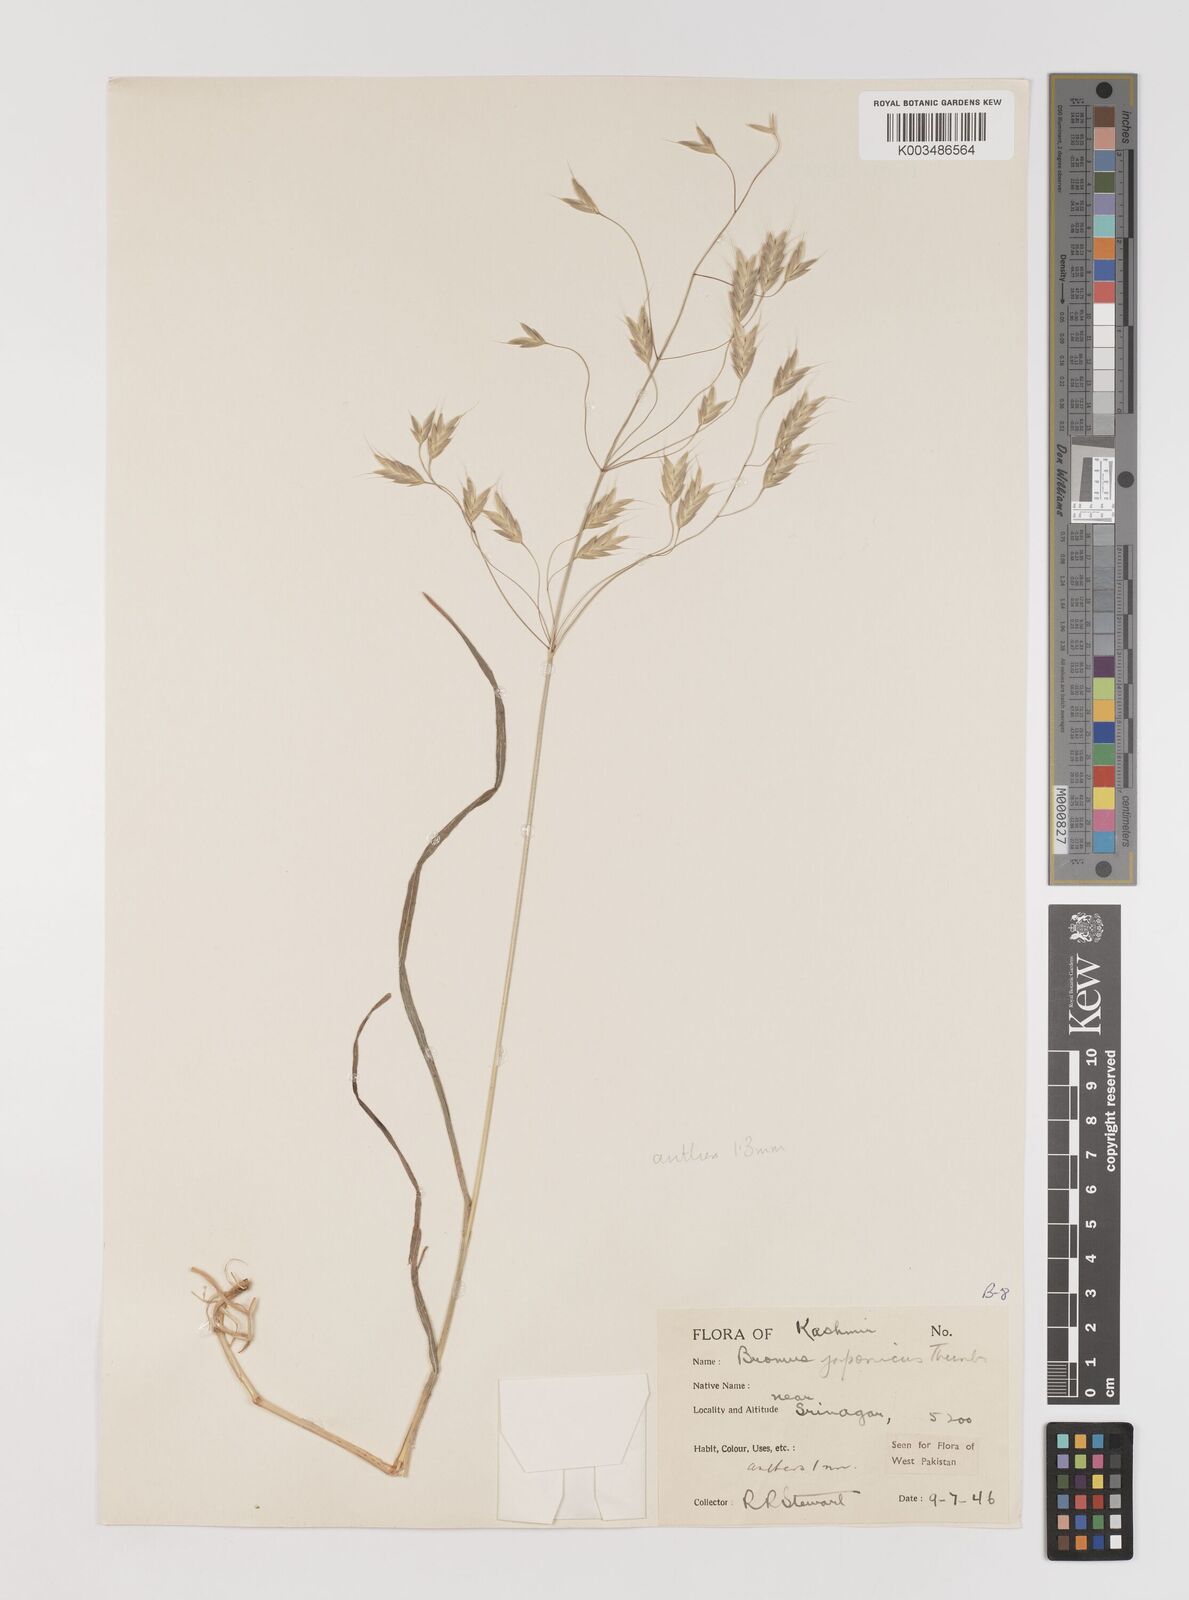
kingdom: Plantae
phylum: Tracheophyta
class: Liliopsida
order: Poales
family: Poaceae
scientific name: Poaceae
